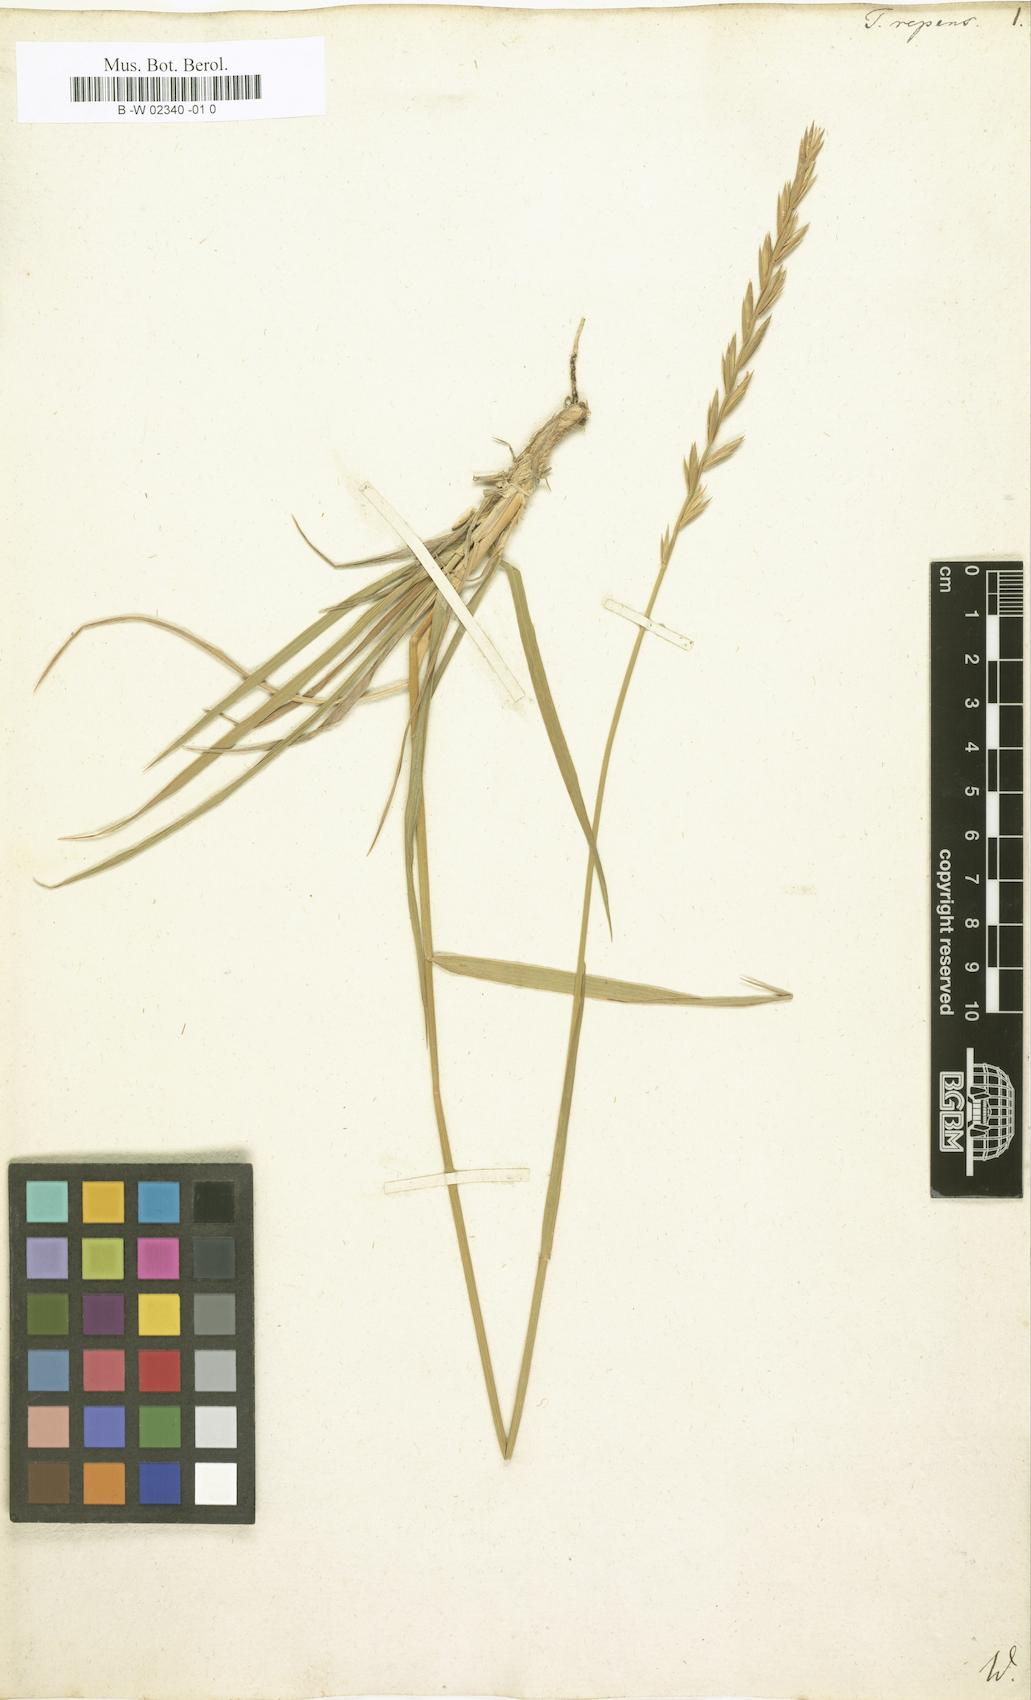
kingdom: Plantae
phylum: Tracheophyta
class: Liliopsida
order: Poales
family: Poaceae
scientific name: Poaceae
